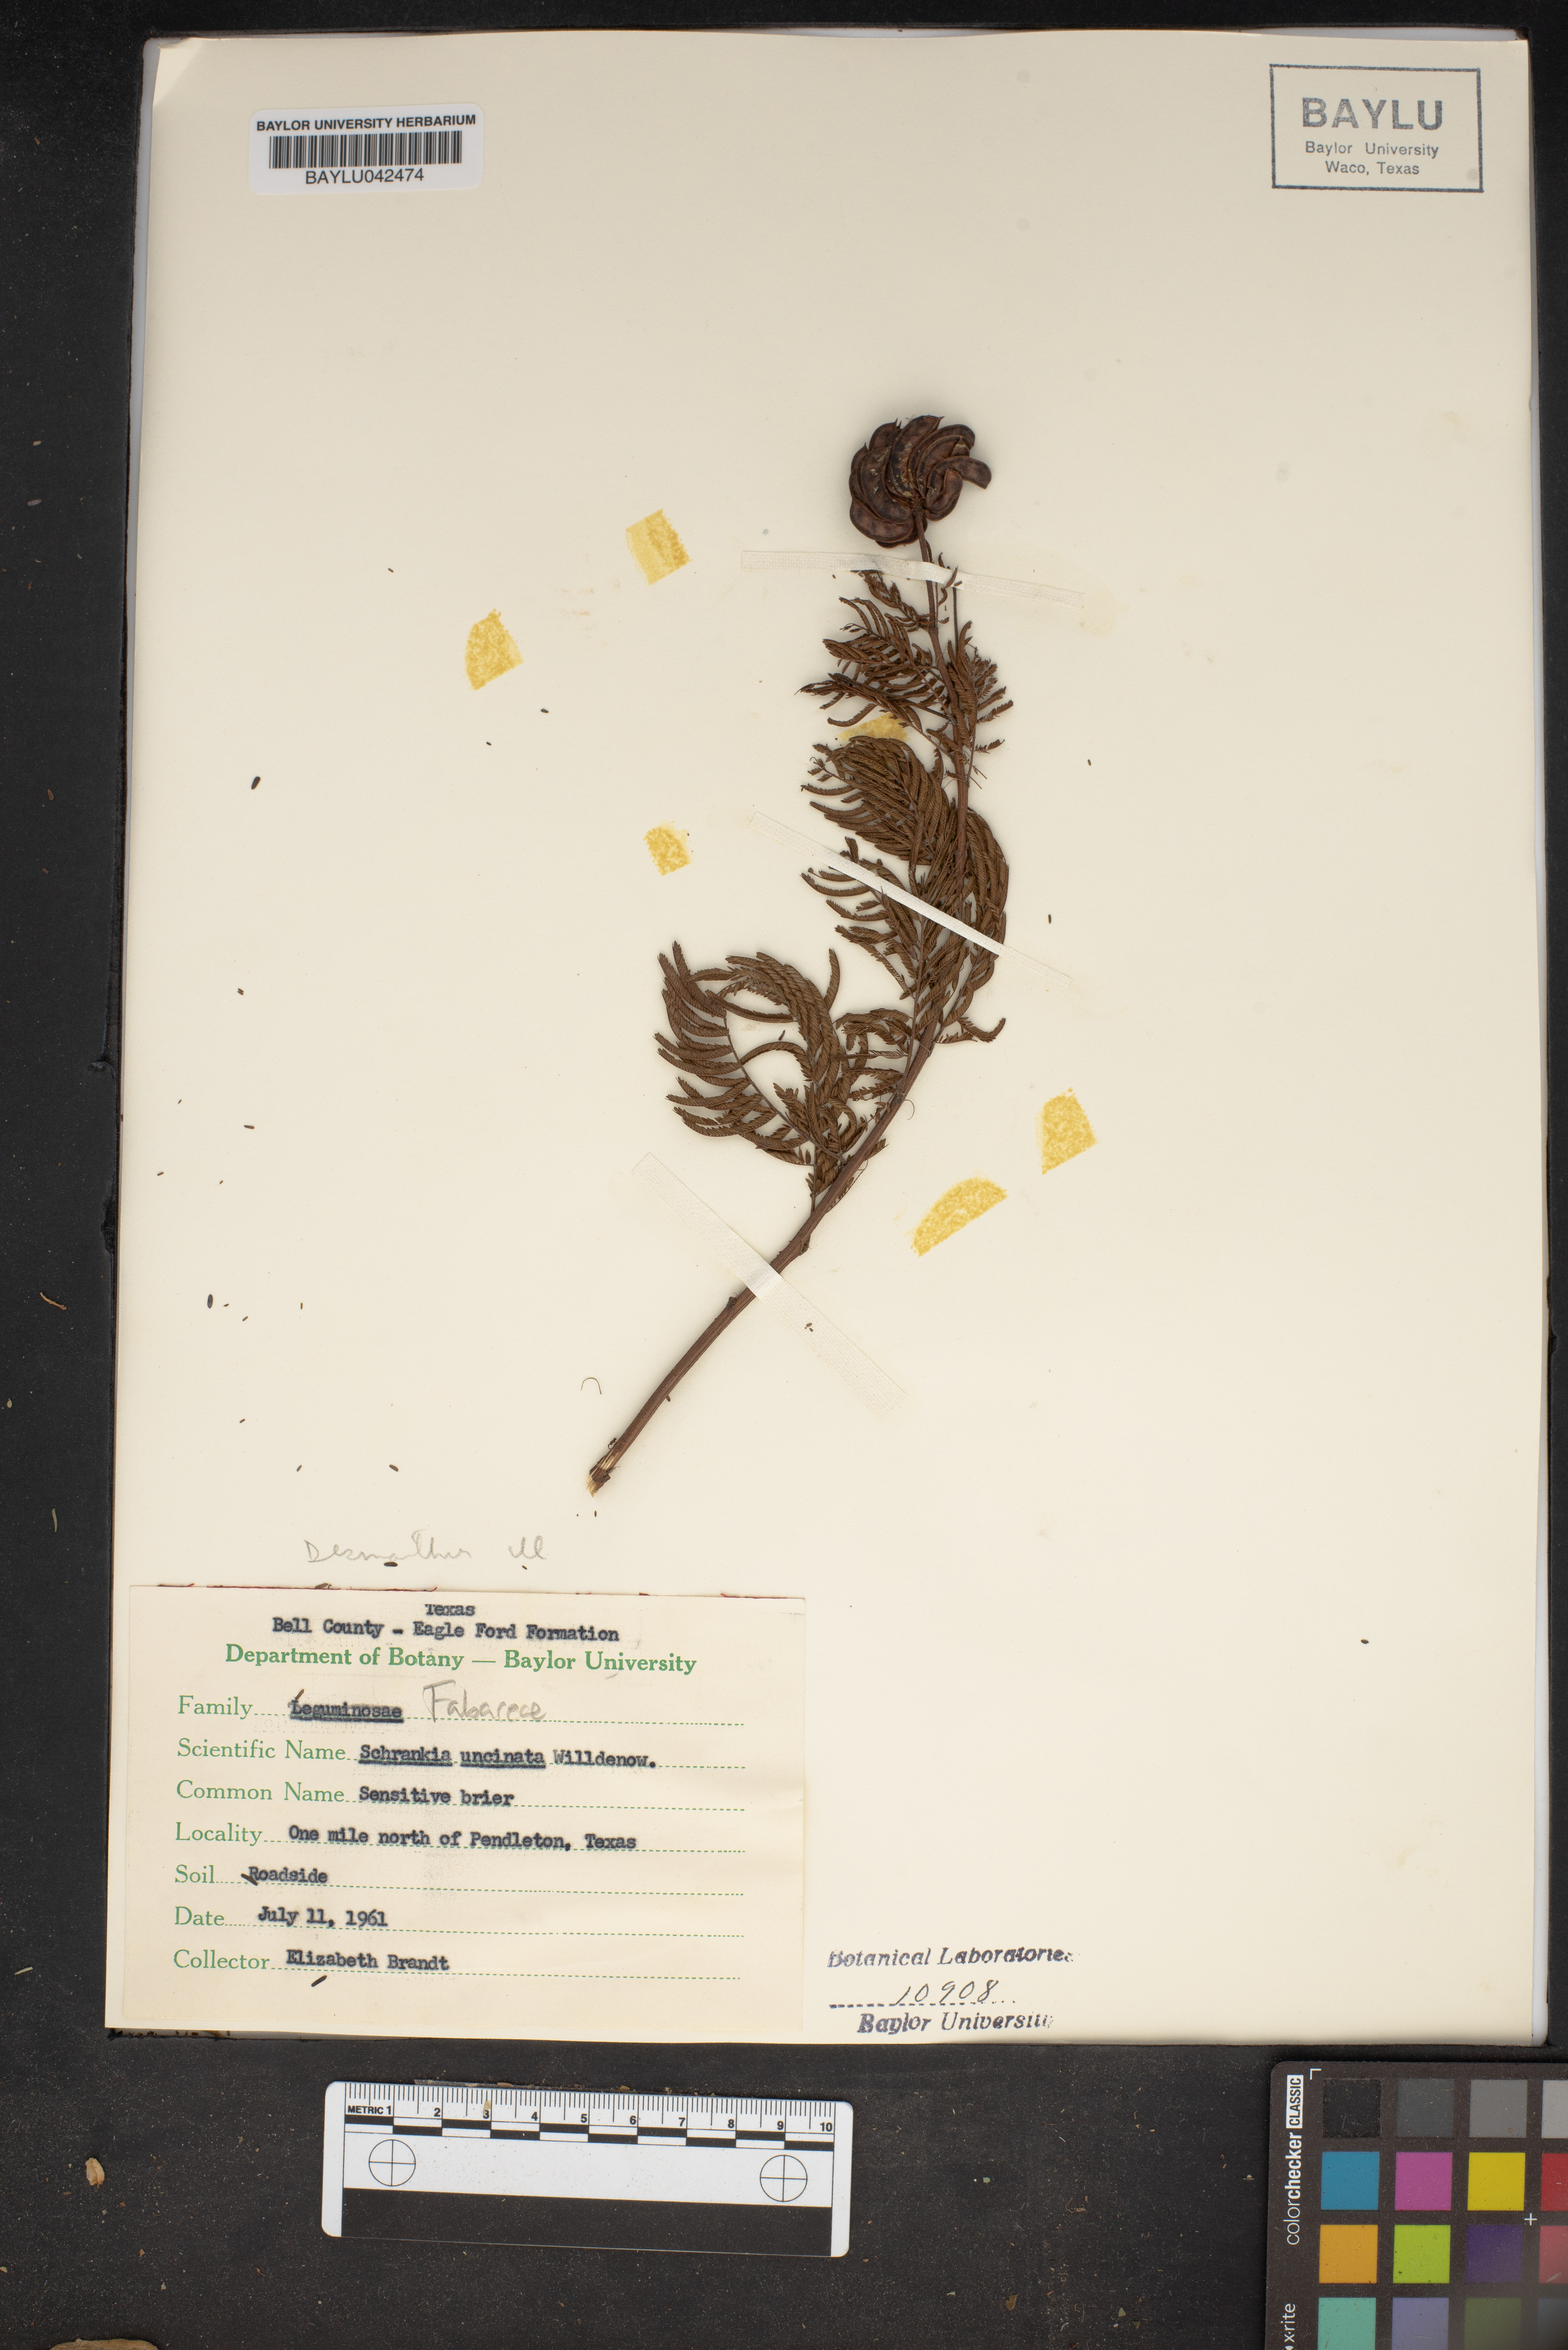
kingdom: Plantae
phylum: Tracheophyta
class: Magnoliopsida
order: Fabales
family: Fabaceae
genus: Mimosa
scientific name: Mimosa quadrivalvis
